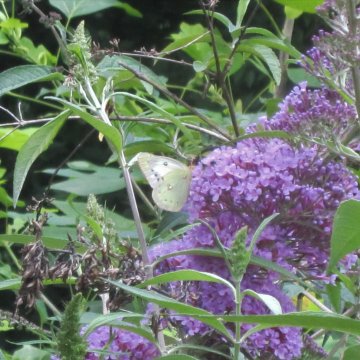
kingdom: Animalia
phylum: Arthropoda
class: Insecta
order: Lepidoptera
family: Pieridae
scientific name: Pieridae
